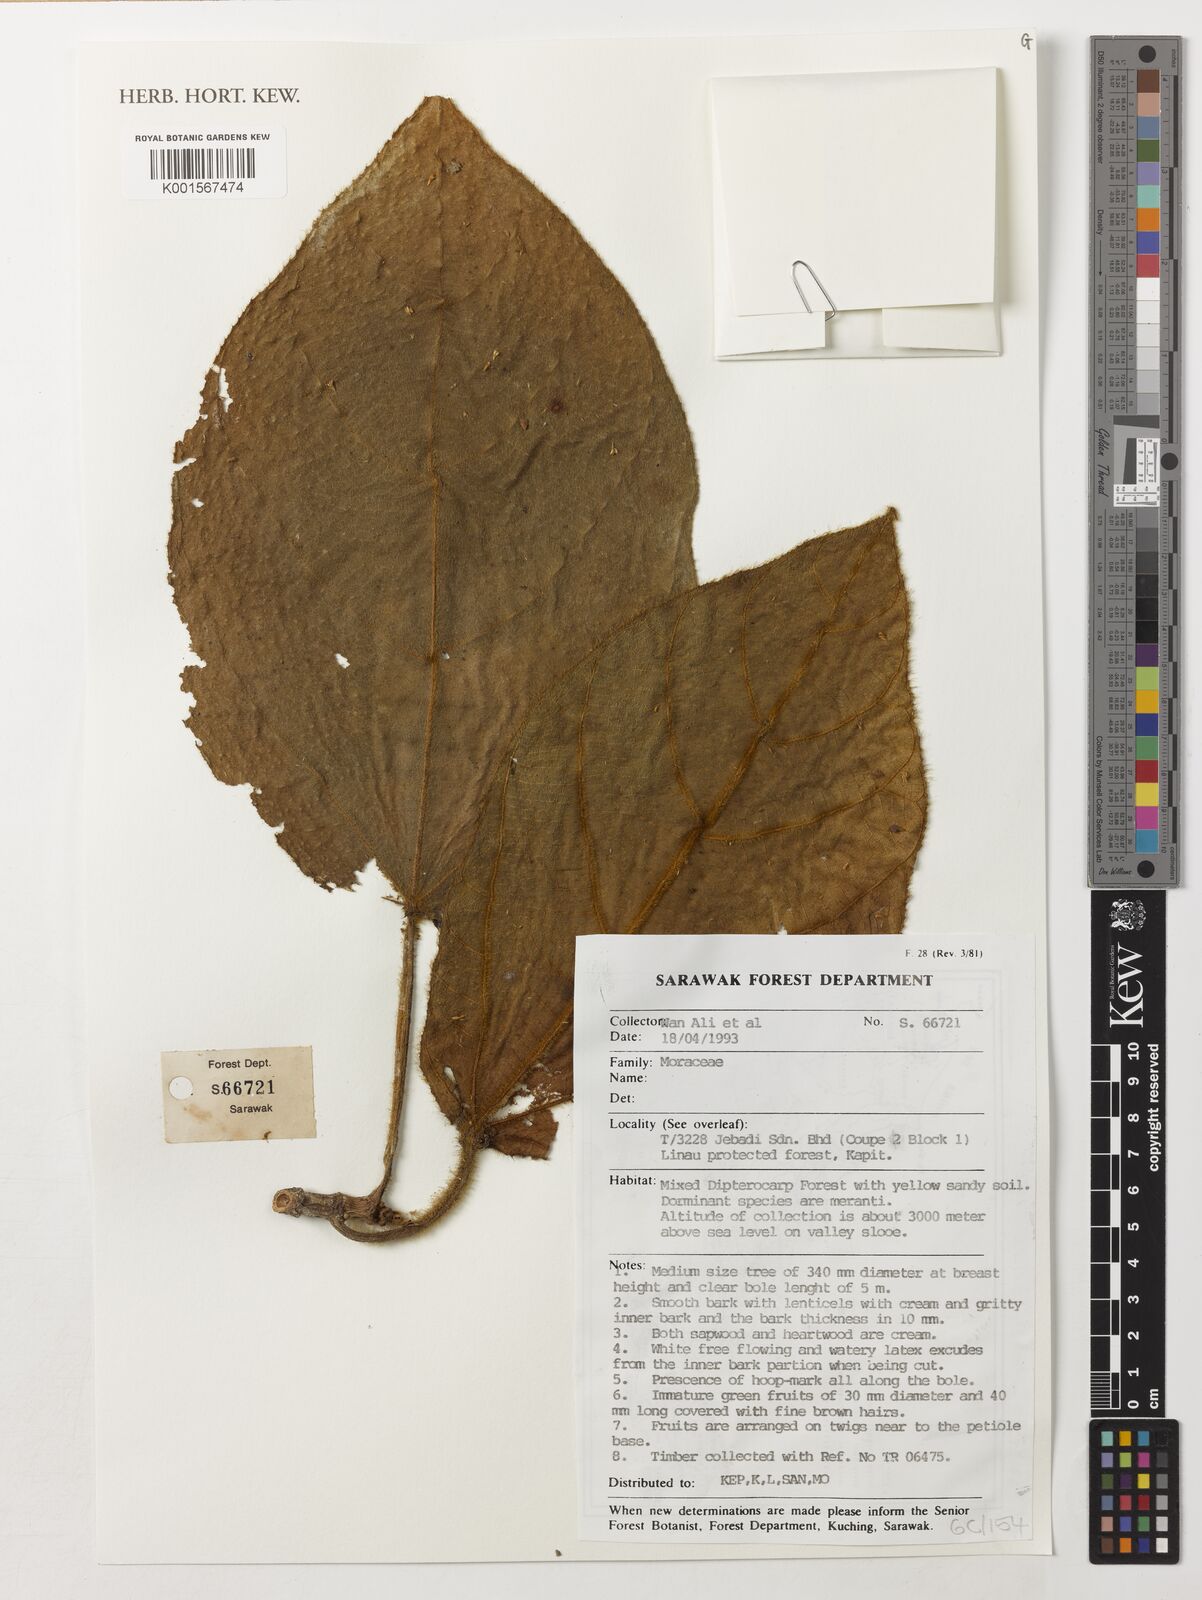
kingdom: Plantae
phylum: Tracheophyta
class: Magnoliopsida
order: Rosales
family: Moraceae
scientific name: Moraceae
